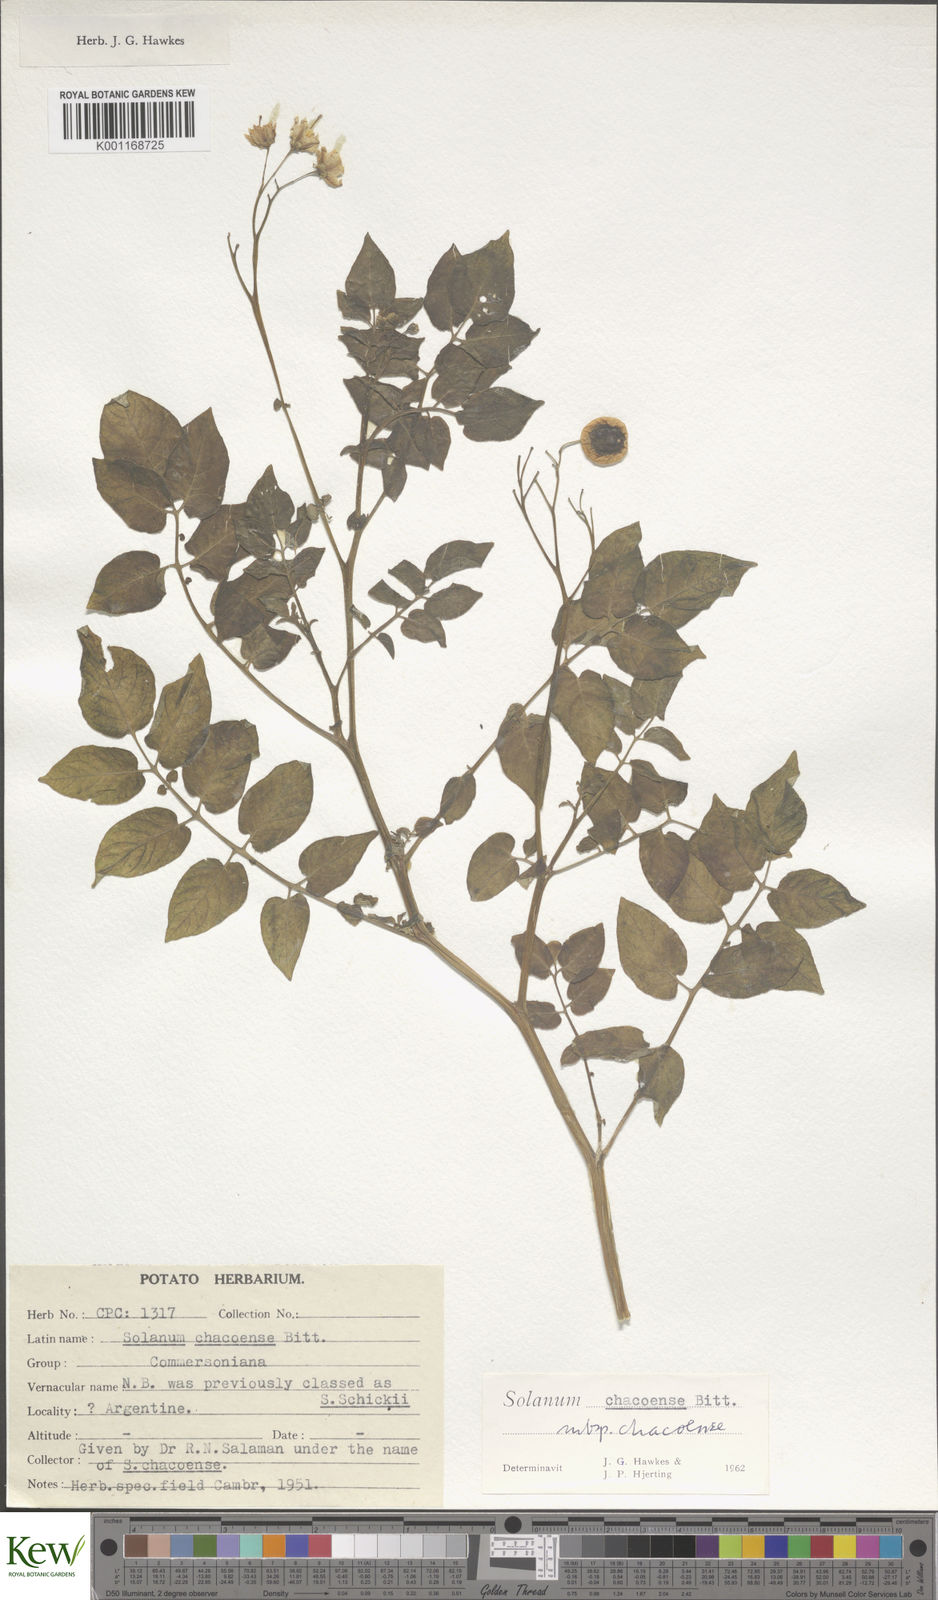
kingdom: Plantae
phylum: Tracheophyta
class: Magnoliopsida
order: Solanales
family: Solanaceae
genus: Solanum
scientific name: Solanum chacoense
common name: Chaco potato
